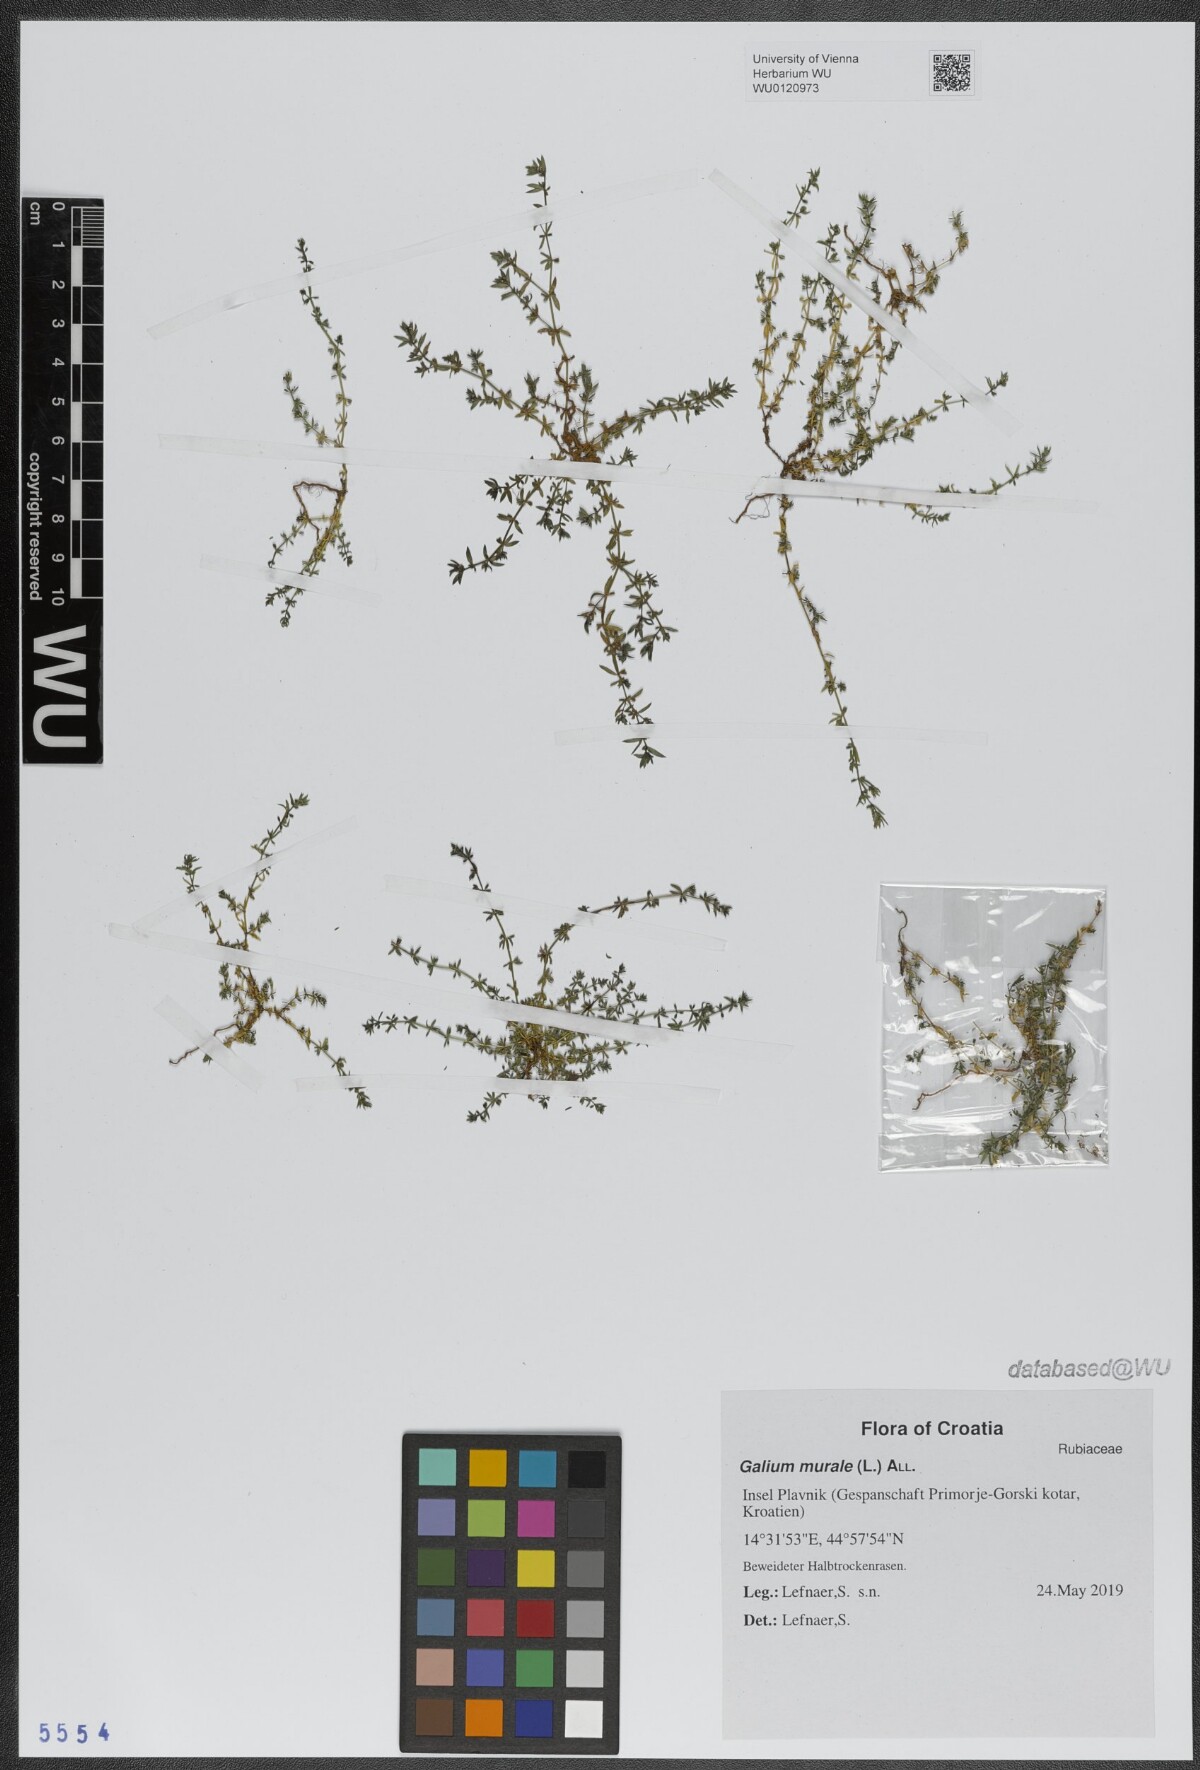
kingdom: Plantae
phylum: Tracheophyta
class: Magnoliopsida
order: Gentianales
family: Rubiaceae
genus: Galium
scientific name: Galium murale
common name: Yellow wall bedstraw
